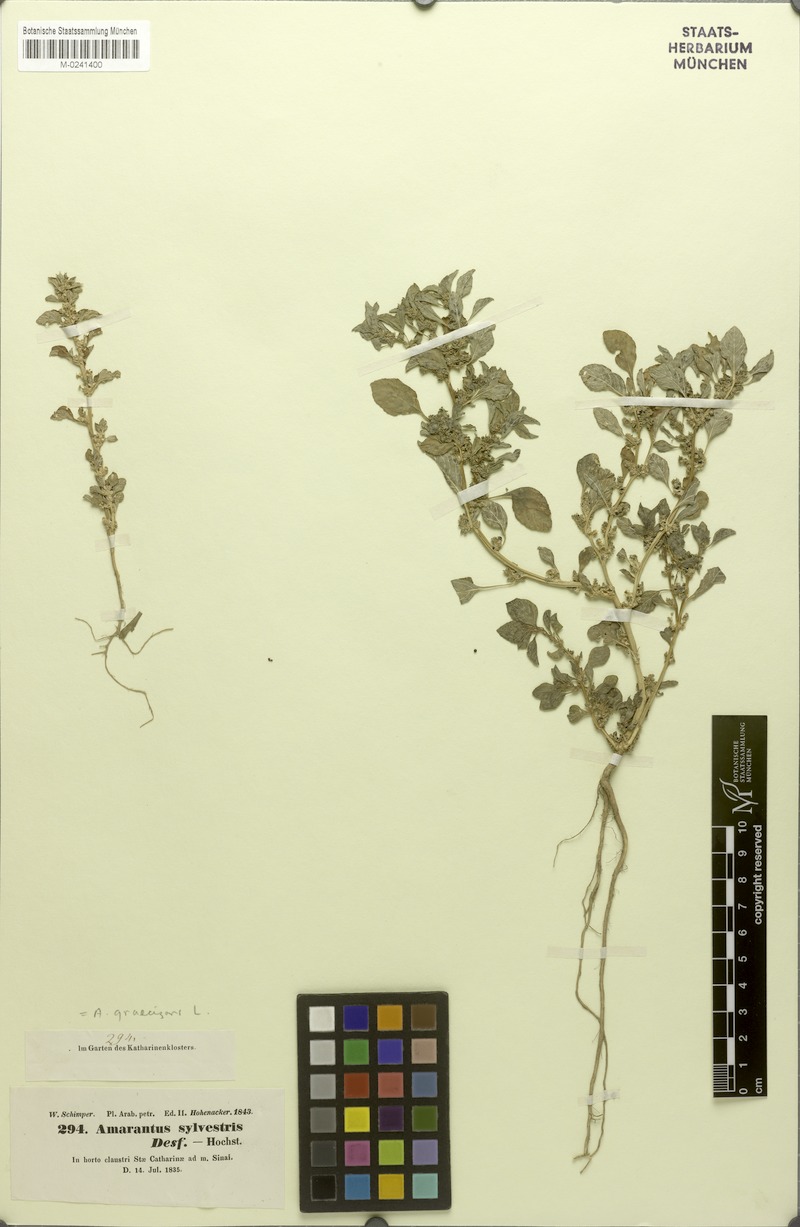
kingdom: Plantae
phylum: Tracheophyta
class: Magnoliopsida
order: Caryophyllales
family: Amaranthaceae
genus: Amaranthus
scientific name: Amaranthus graecizans
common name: Mediterranean amaranth
